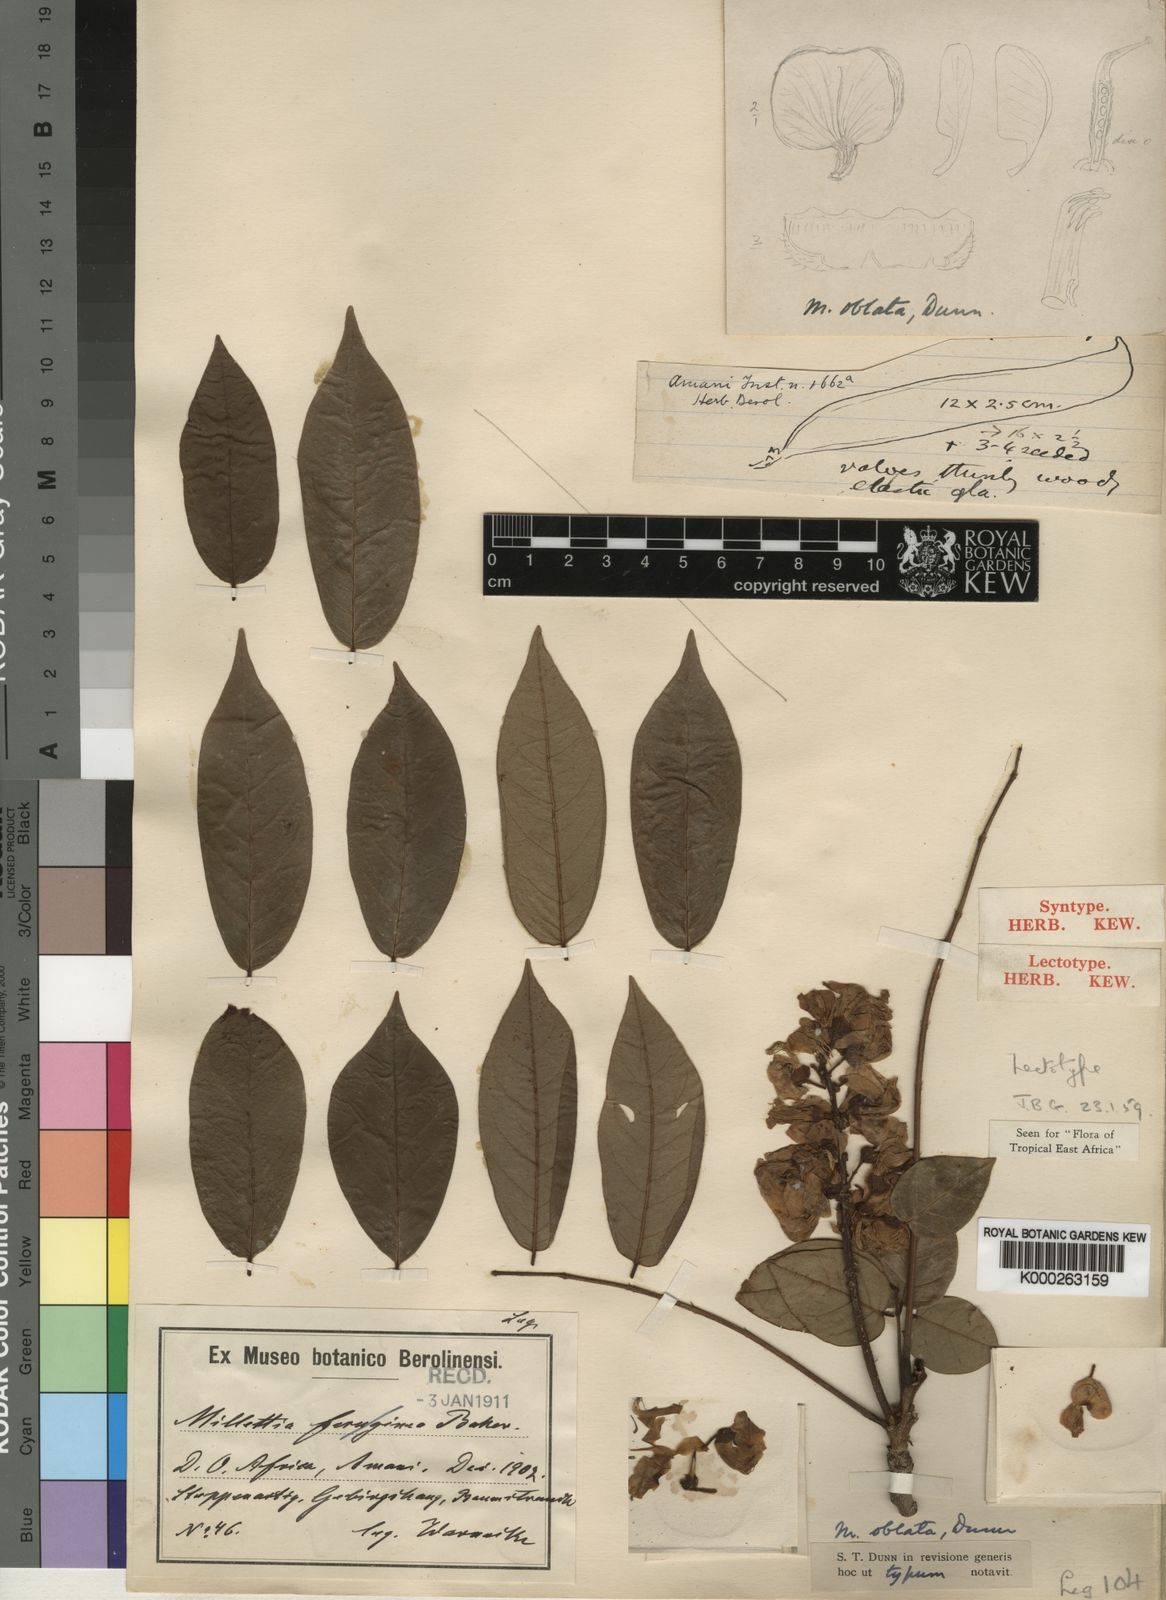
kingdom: Plantae
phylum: Tracheophyta
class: Magnoliopsida
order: Fabales
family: Fabaceae
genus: Millettia
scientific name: Millettia oblata
